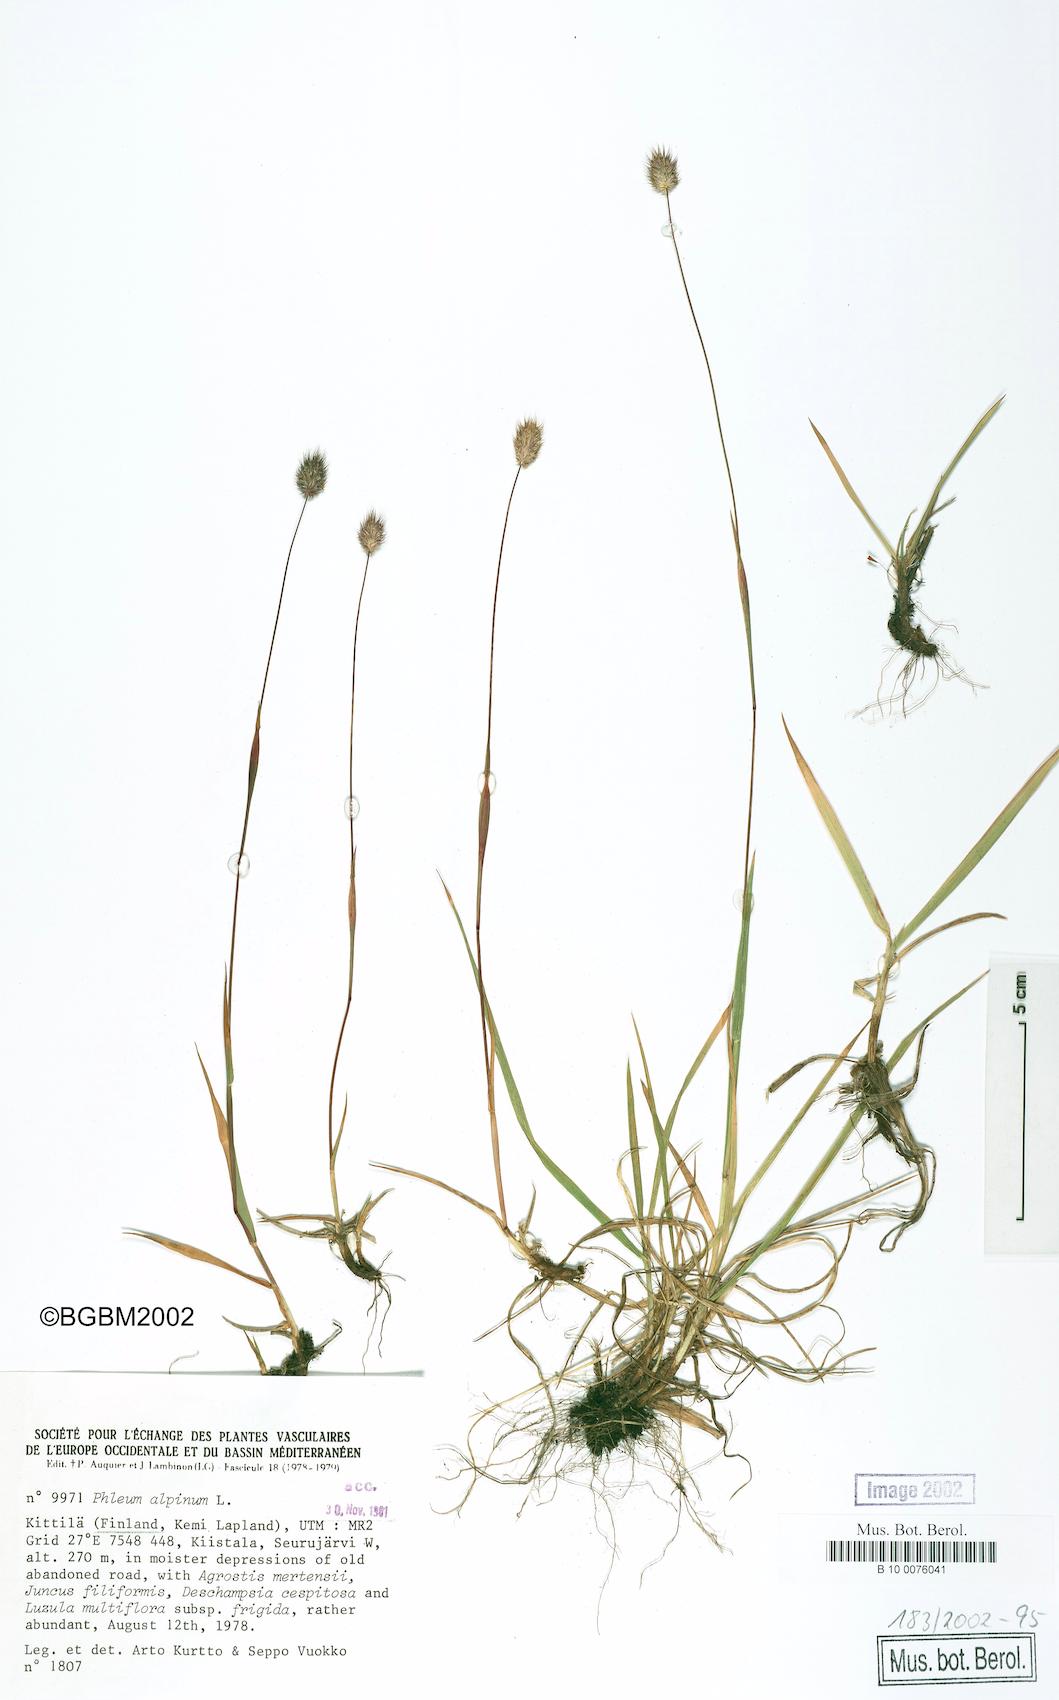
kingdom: Plantae
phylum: Tracheophyta
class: Liliopsida
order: Poales
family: Poaceae
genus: Phleum
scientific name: Phleum alpinum
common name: Alpine cat's-tail
